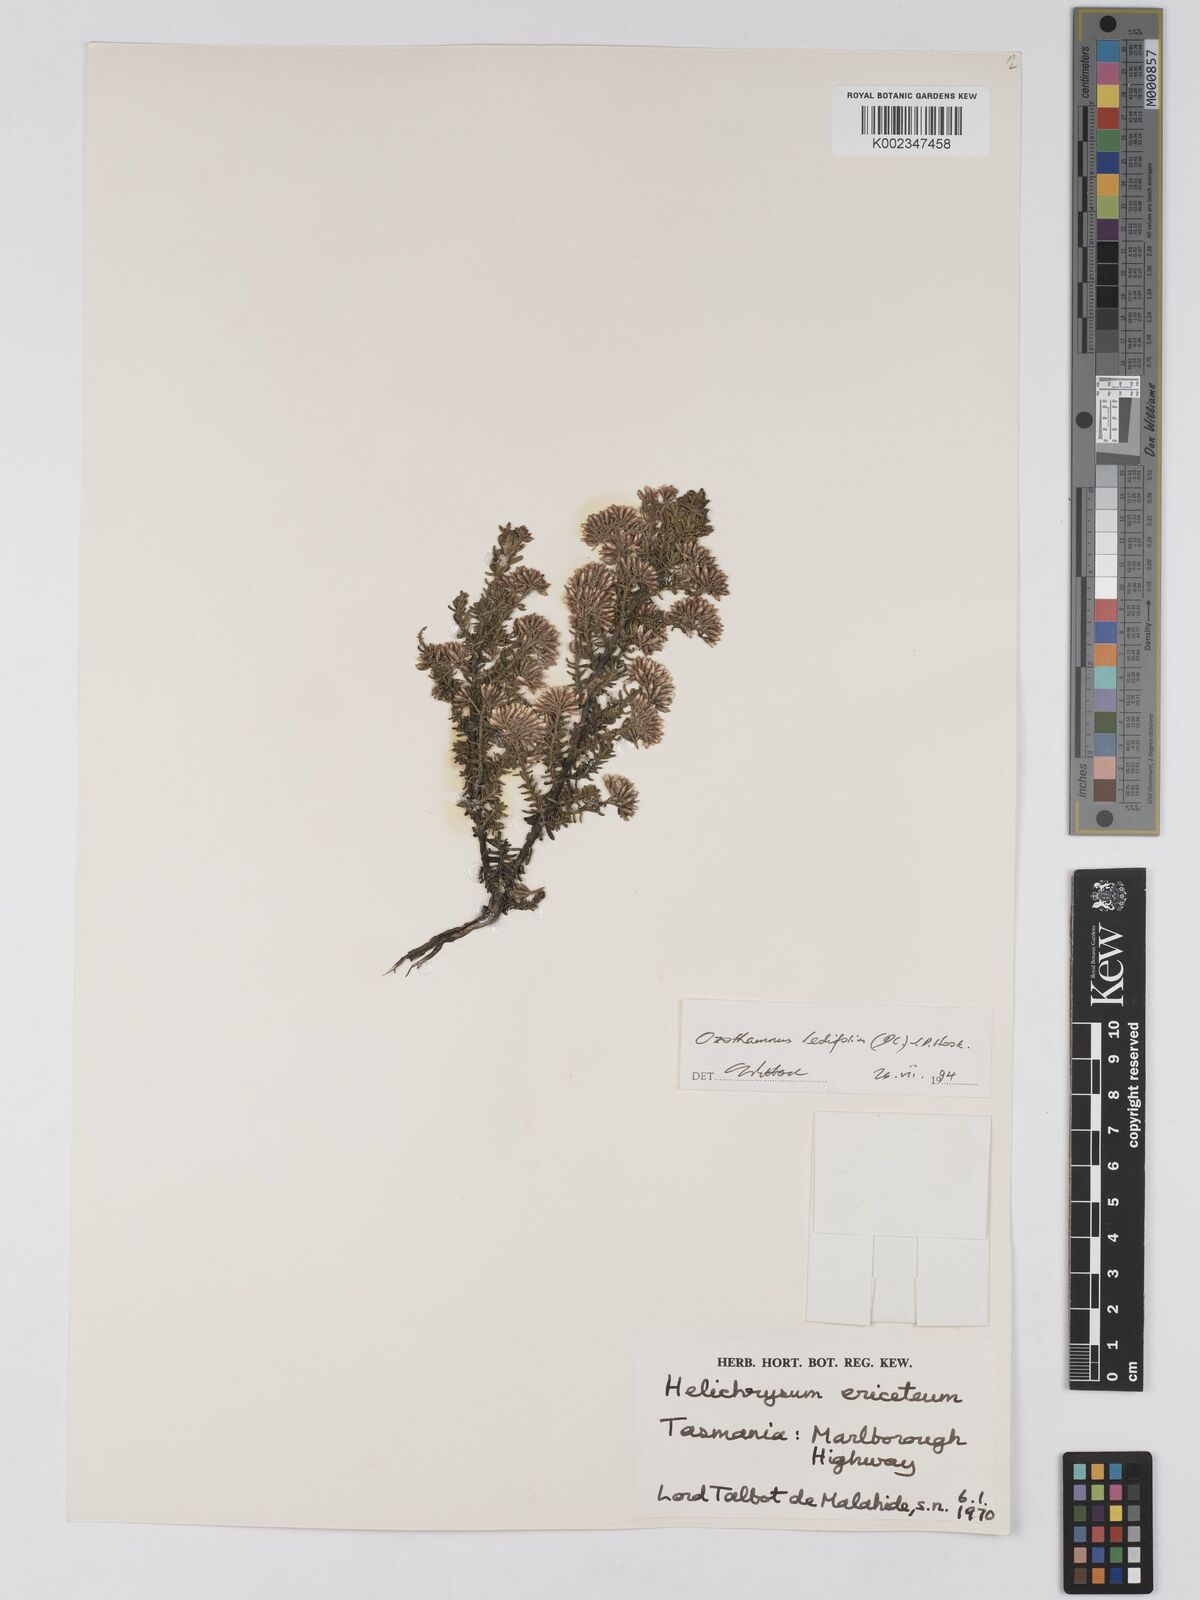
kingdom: Plantae
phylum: Tracheophyta
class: Magnoliopsida
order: Asterales
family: Asteraceae
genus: Ozothamnus
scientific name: Ozothamnus ledifolius
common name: Kerosene-weed
